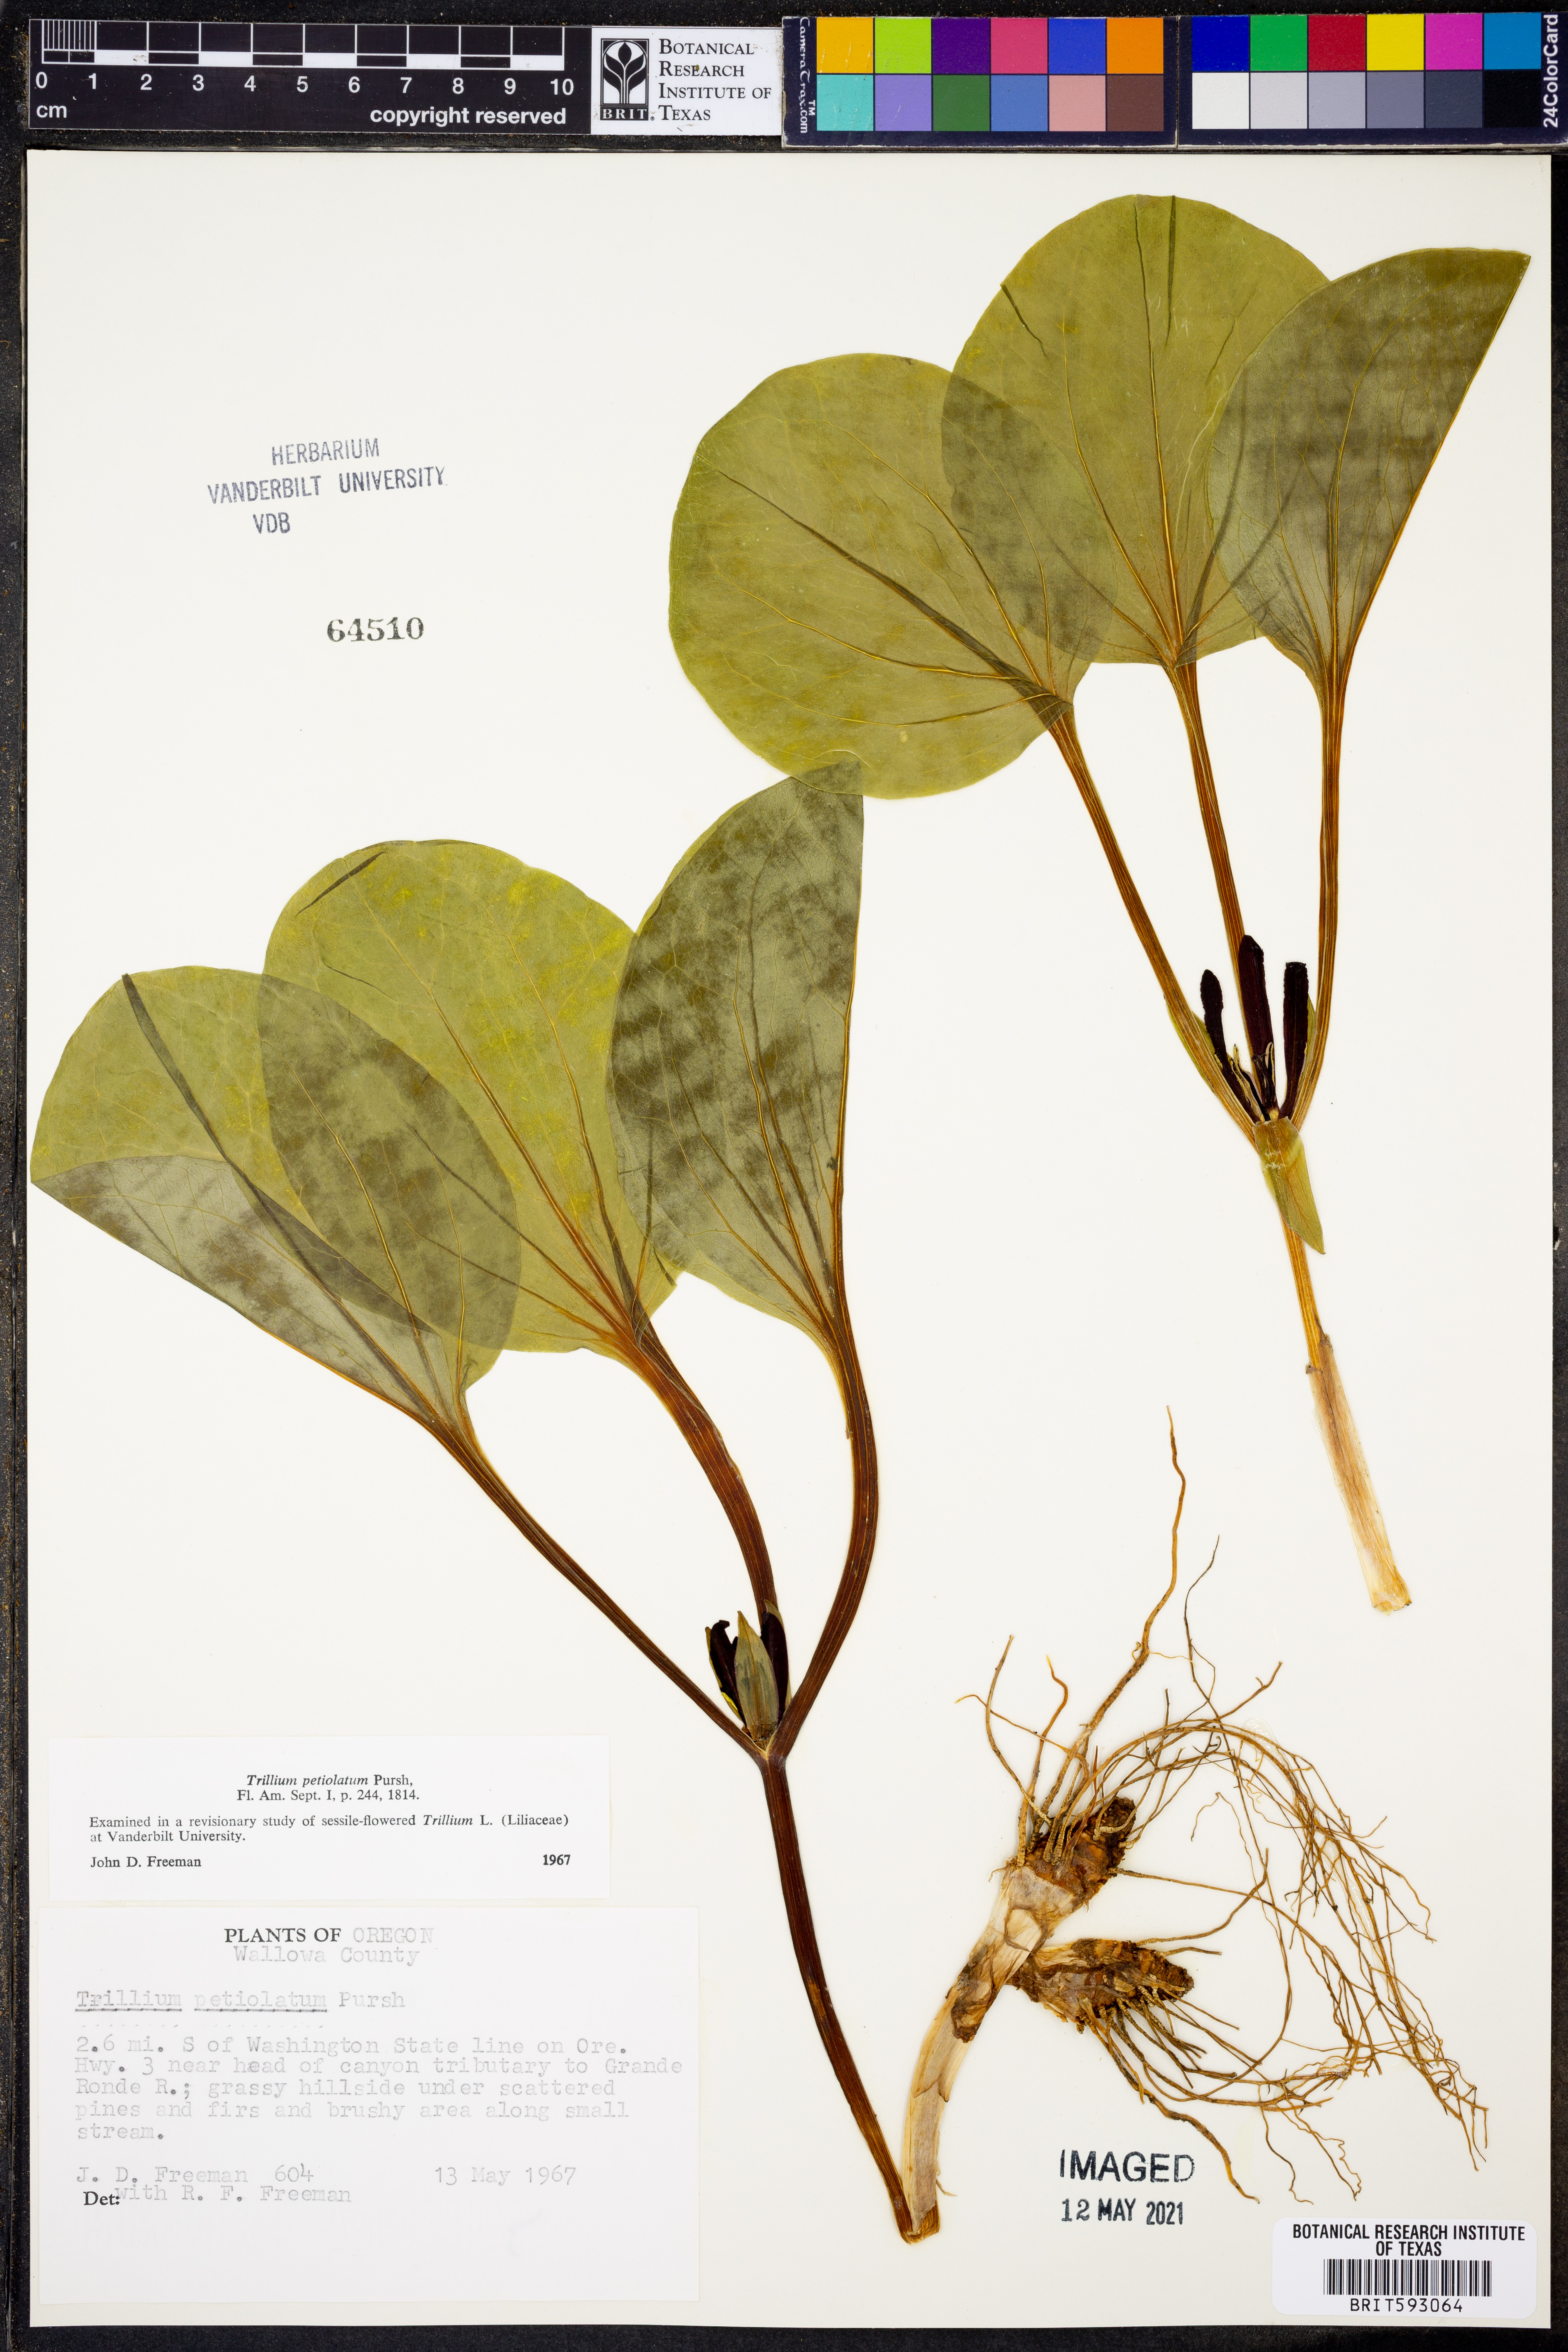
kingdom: Plantae
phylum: Tracheophyta
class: Liliopsida
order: Liliales
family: Melanthiaceae
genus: Trillium
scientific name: Trillium petiolatum
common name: Idaho trillium
